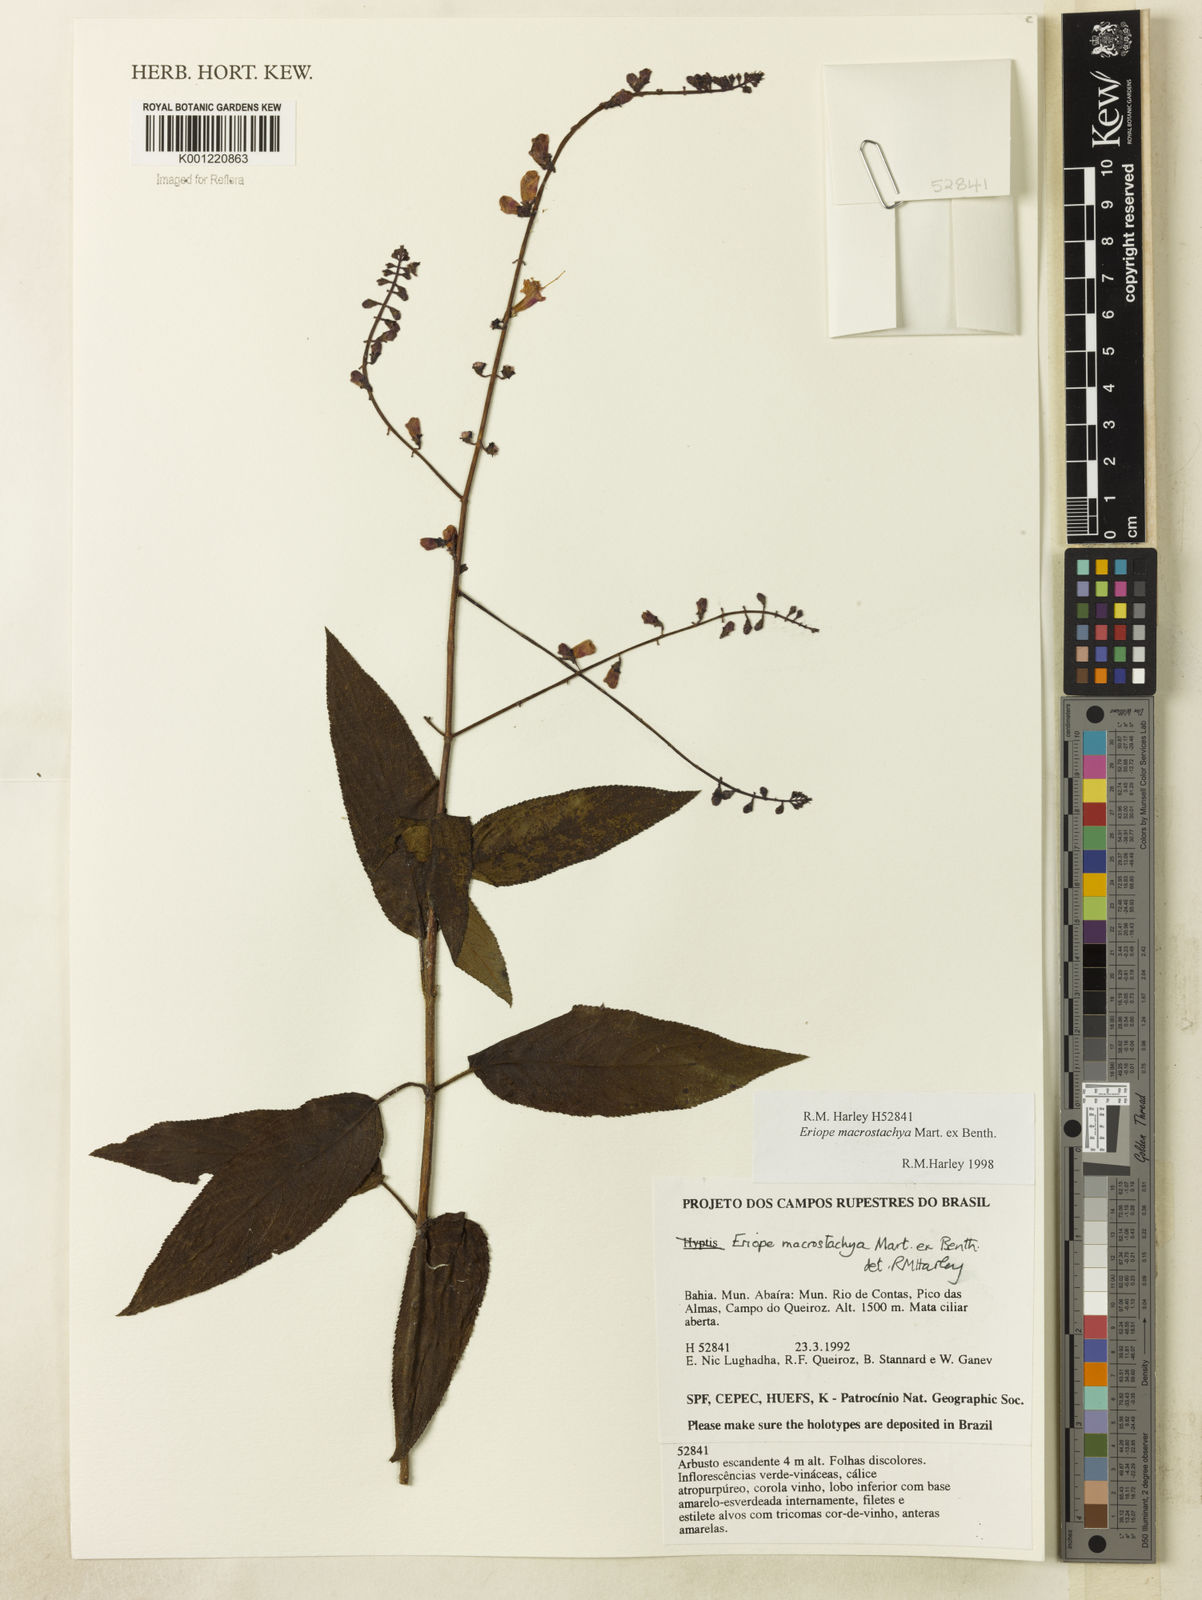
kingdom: Plantae
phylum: Tracheophyta
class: Magnoliopsida
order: Lamiales
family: Lamiaceae
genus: Eriope
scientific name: Eriope macrostachya
